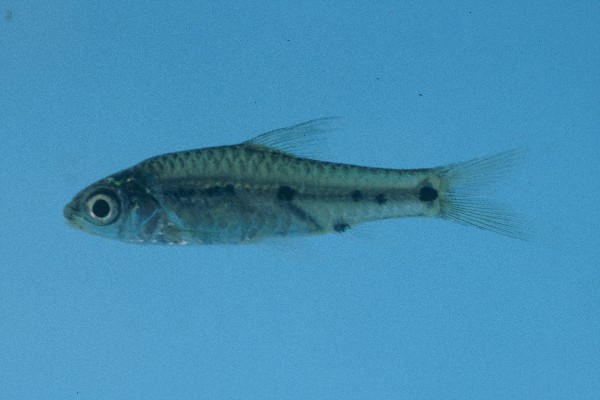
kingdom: Animalia
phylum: Chordata
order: Cypriniformes
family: Cyprinidae
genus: Enteromius
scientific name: Enteromius lineomaculatus
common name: Line-spotted barb
